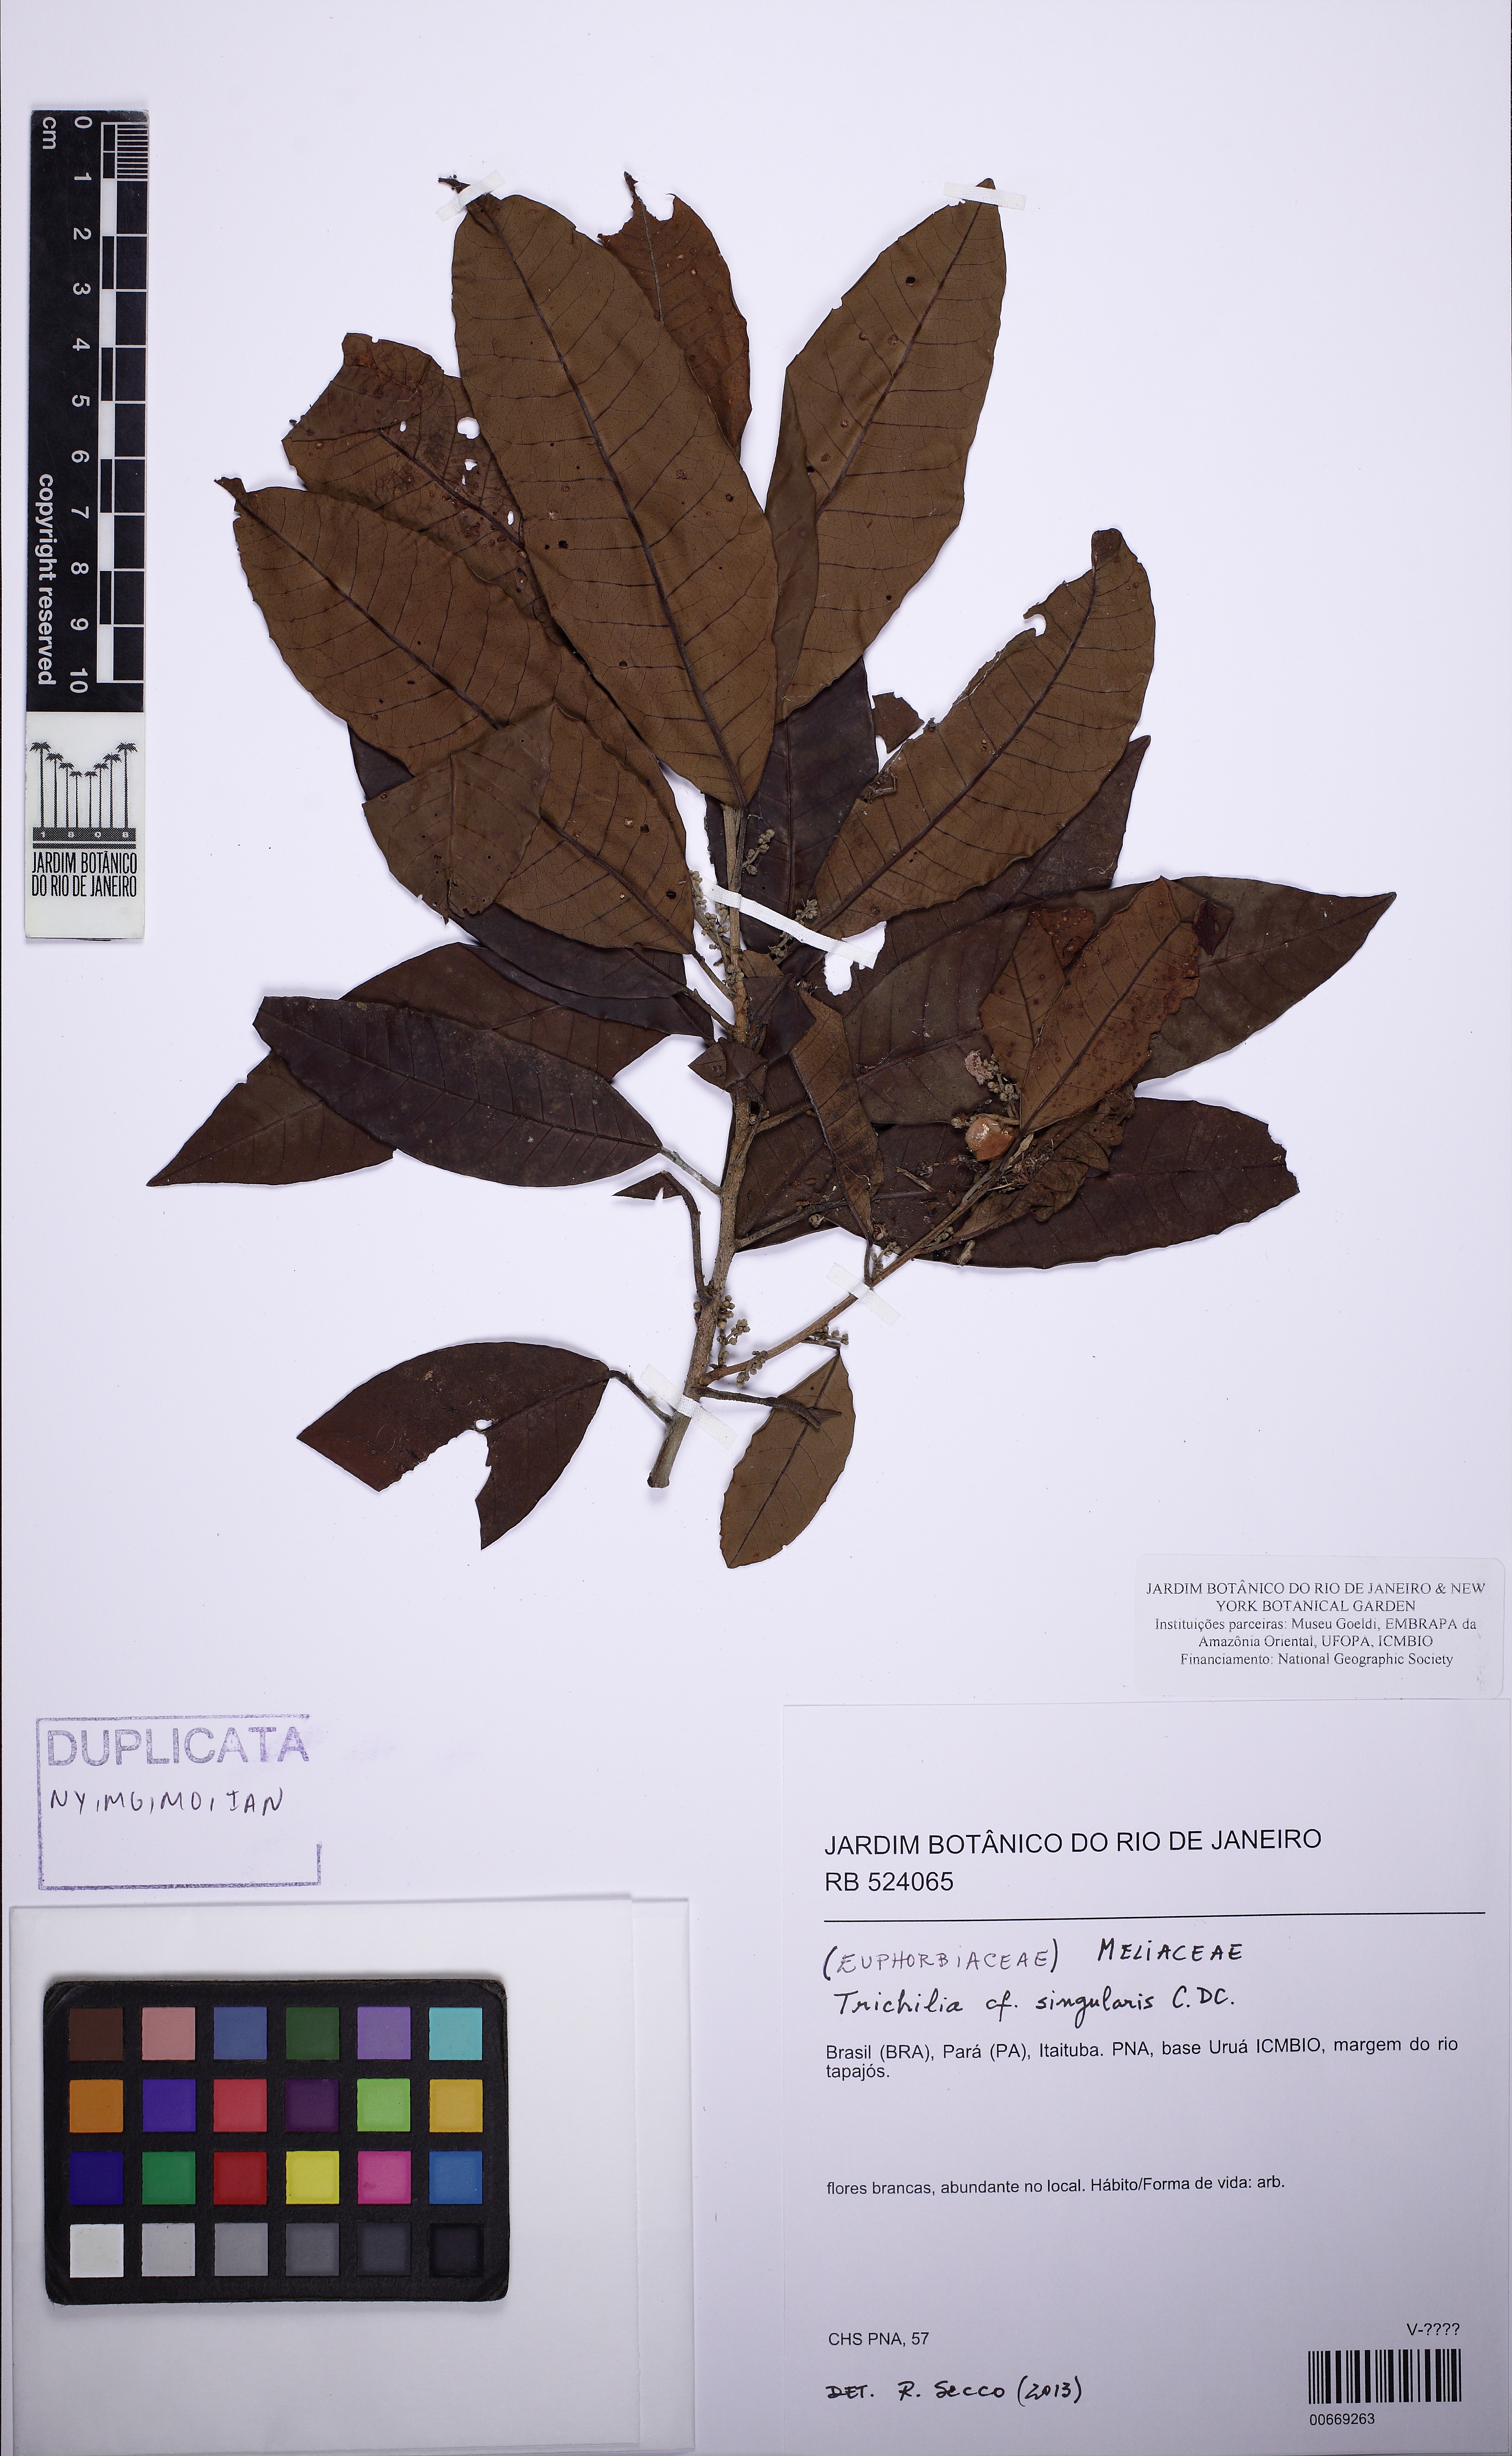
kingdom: Plantae
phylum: Tracheophyta
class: Magnoliopsida
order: Sapindales
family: Meliaceae
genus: Trichilia
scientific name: Trichilia singularis
